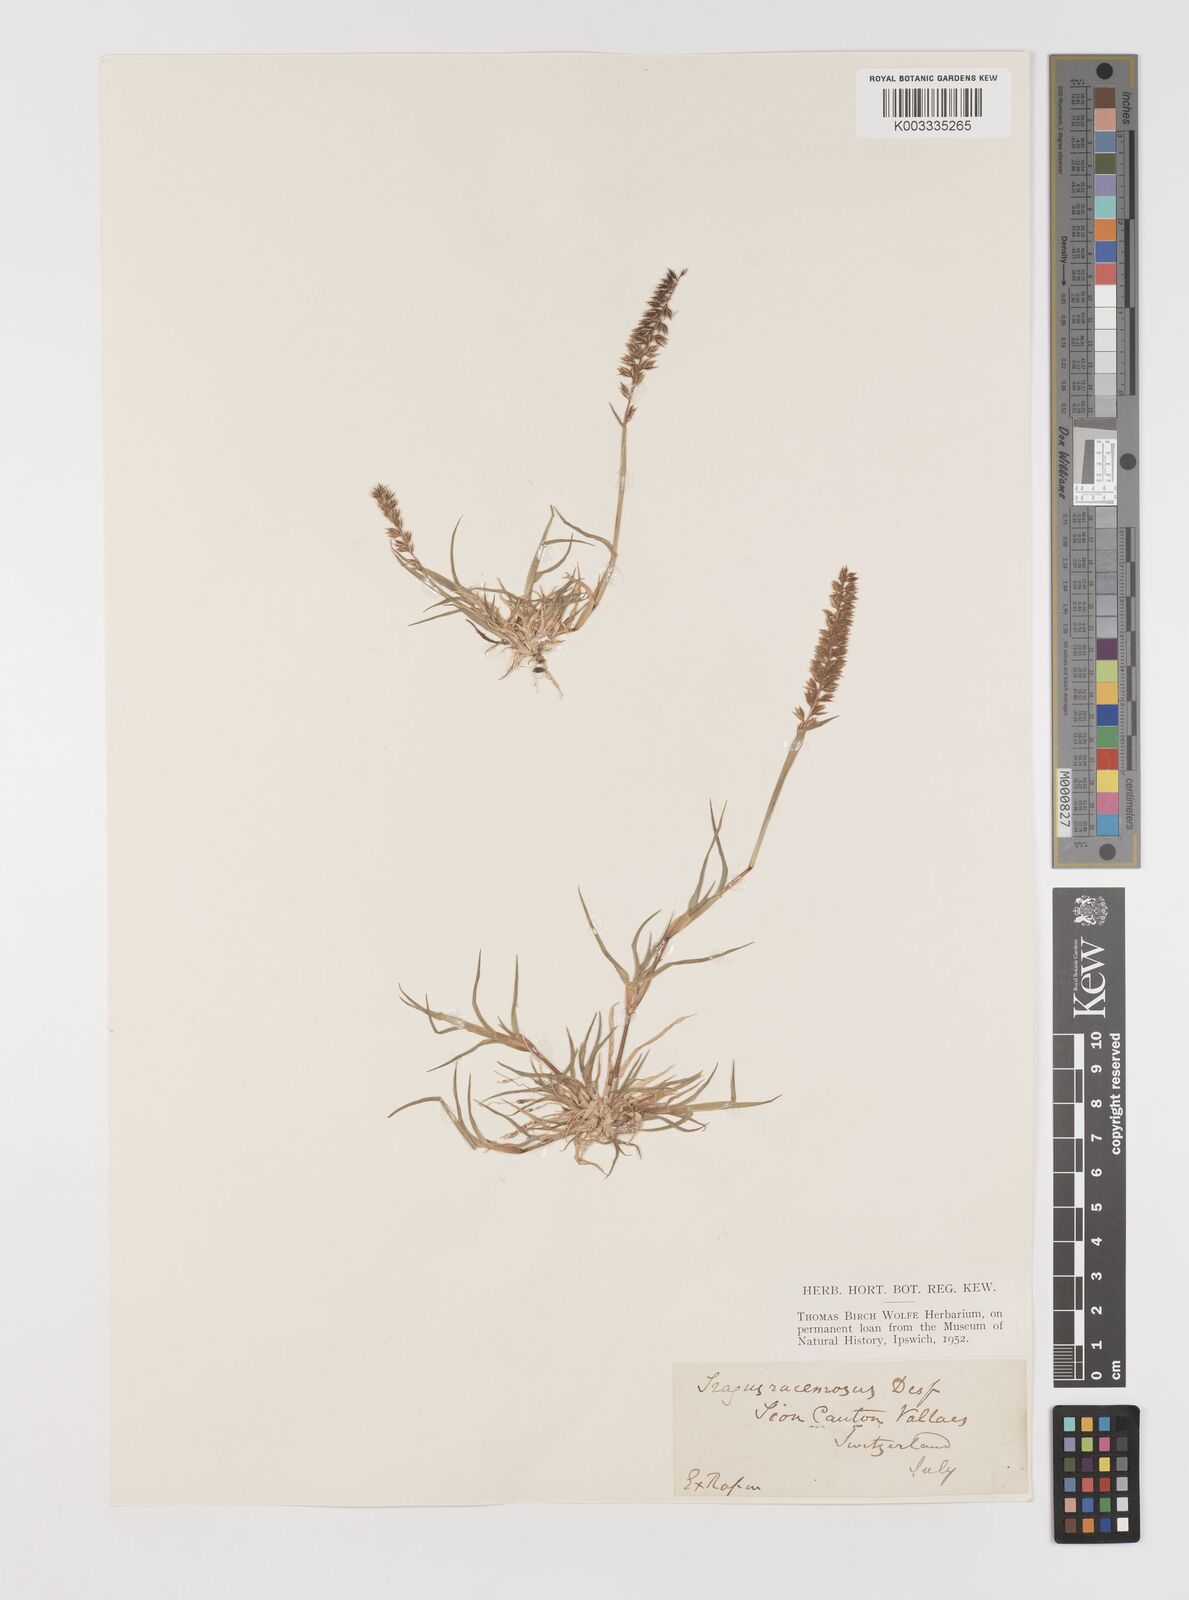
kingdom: Plantae
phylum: Tracheophyta
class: Liliopsida
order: Poales
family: Poaceae
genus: Tragus
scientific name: Tragus racemosus
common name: European bur-grass
